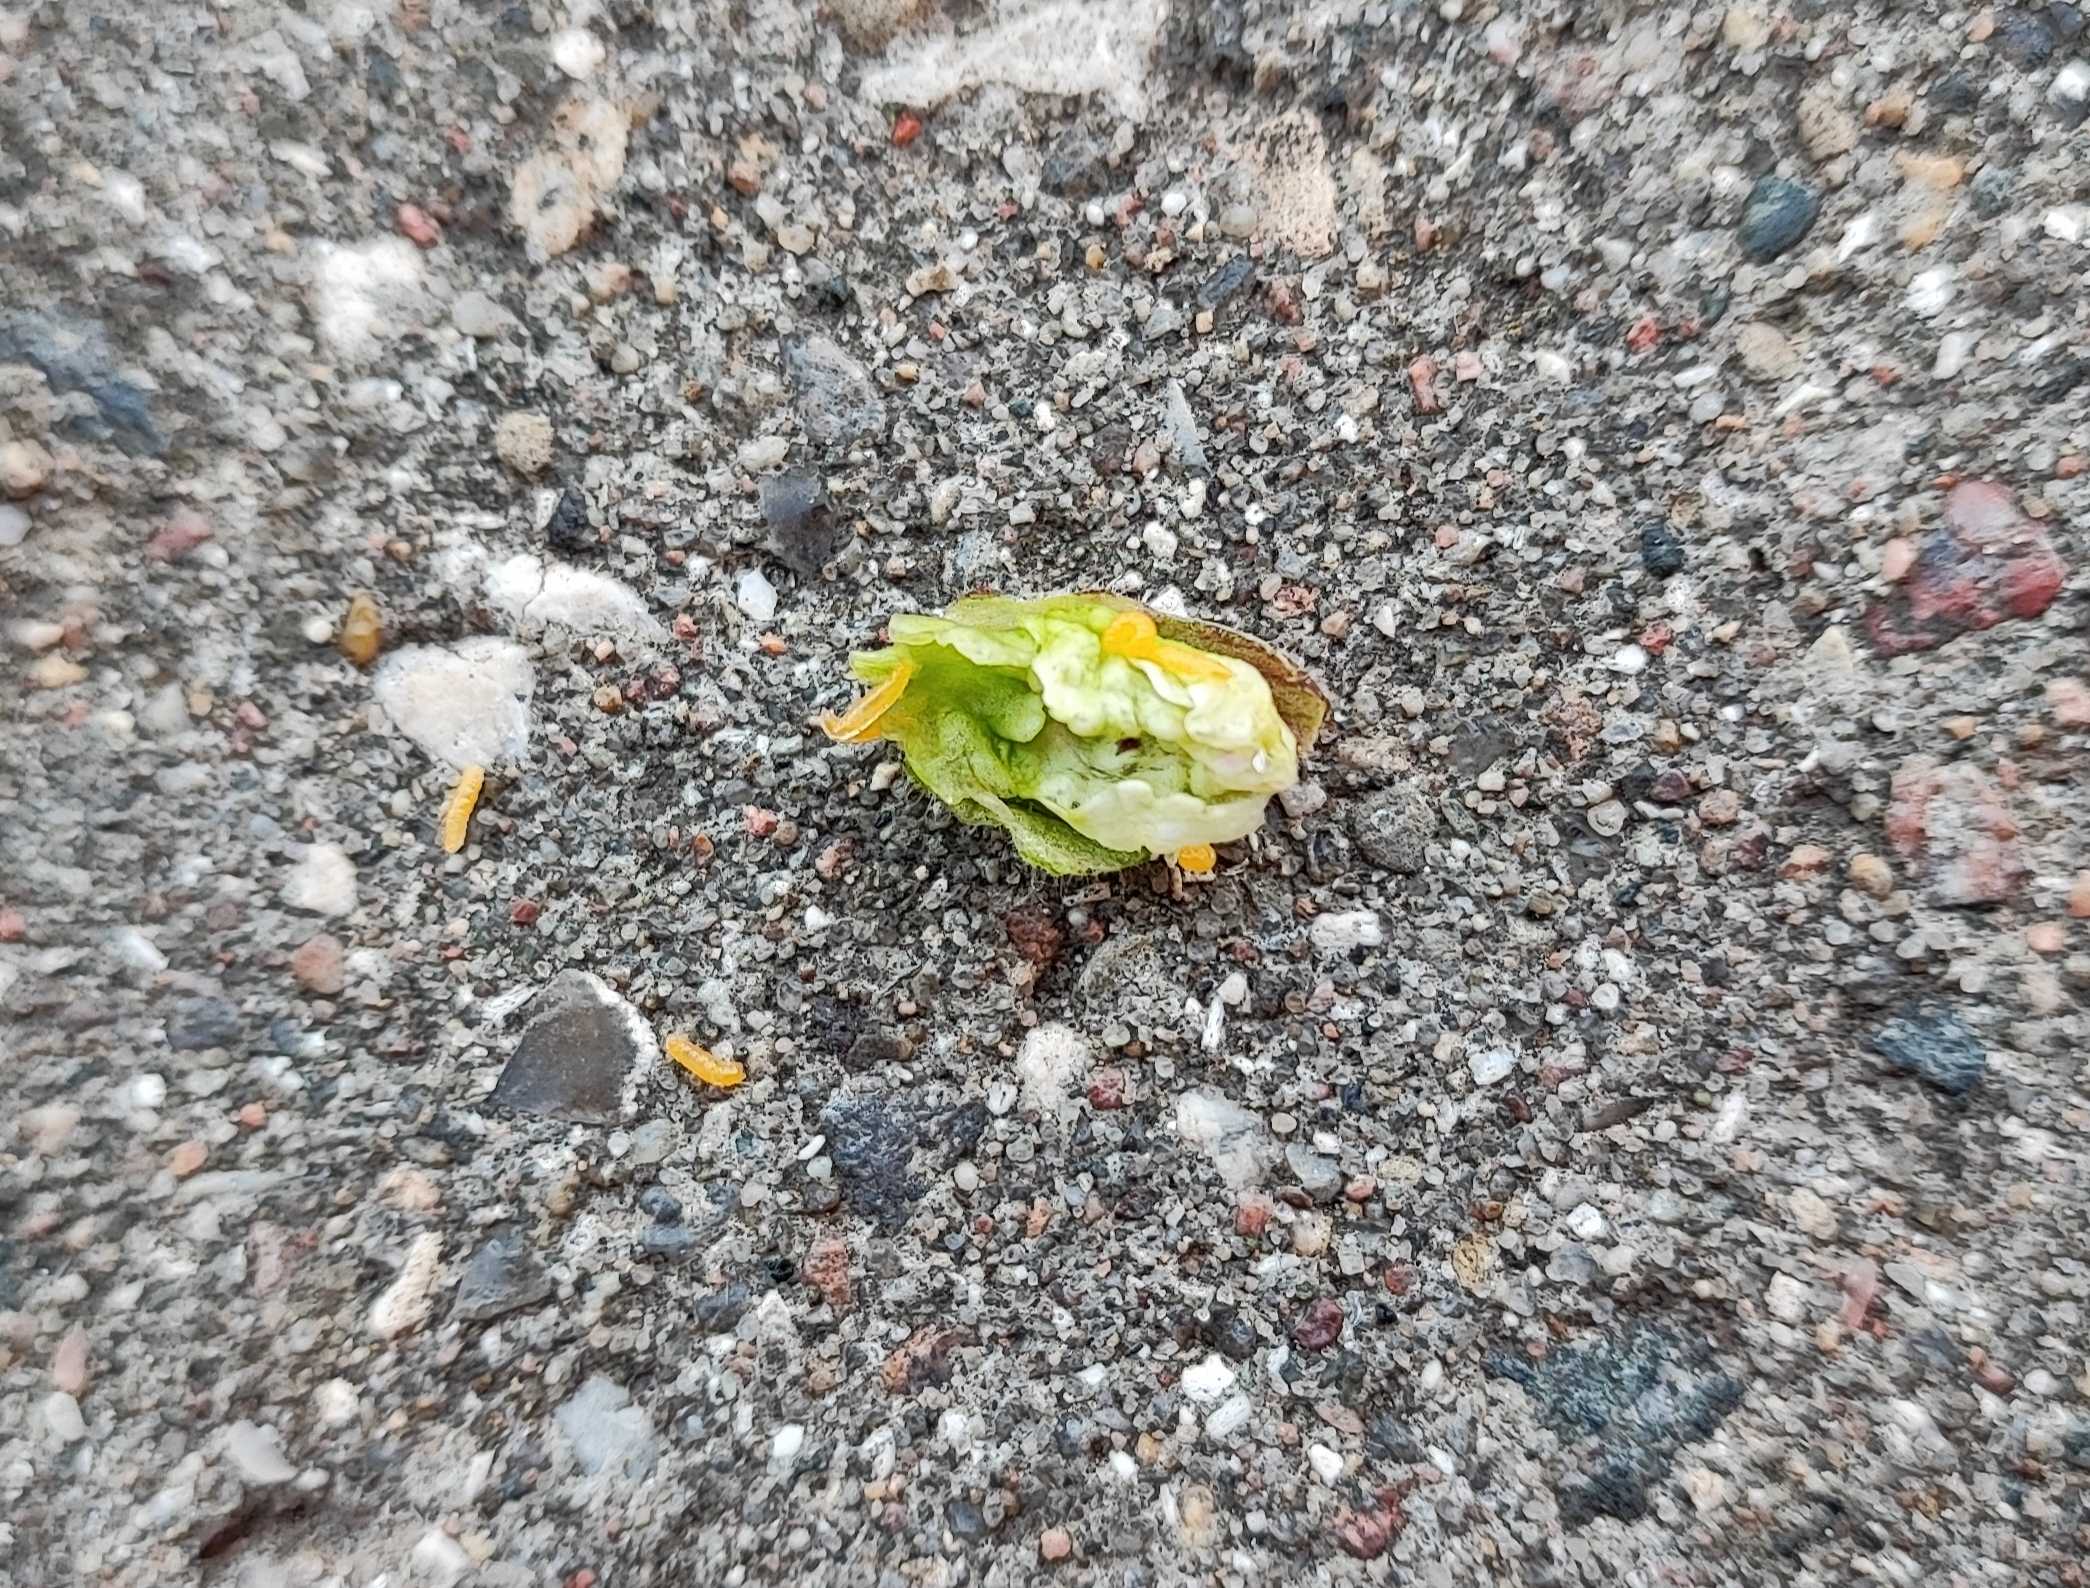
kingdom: Animalia
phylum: Arthropoda
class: Insecta
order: Diptera
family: Cecidomyiidae
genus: Contarinia
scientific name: Contarinia steini
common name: Pragtstjernegalmyg
